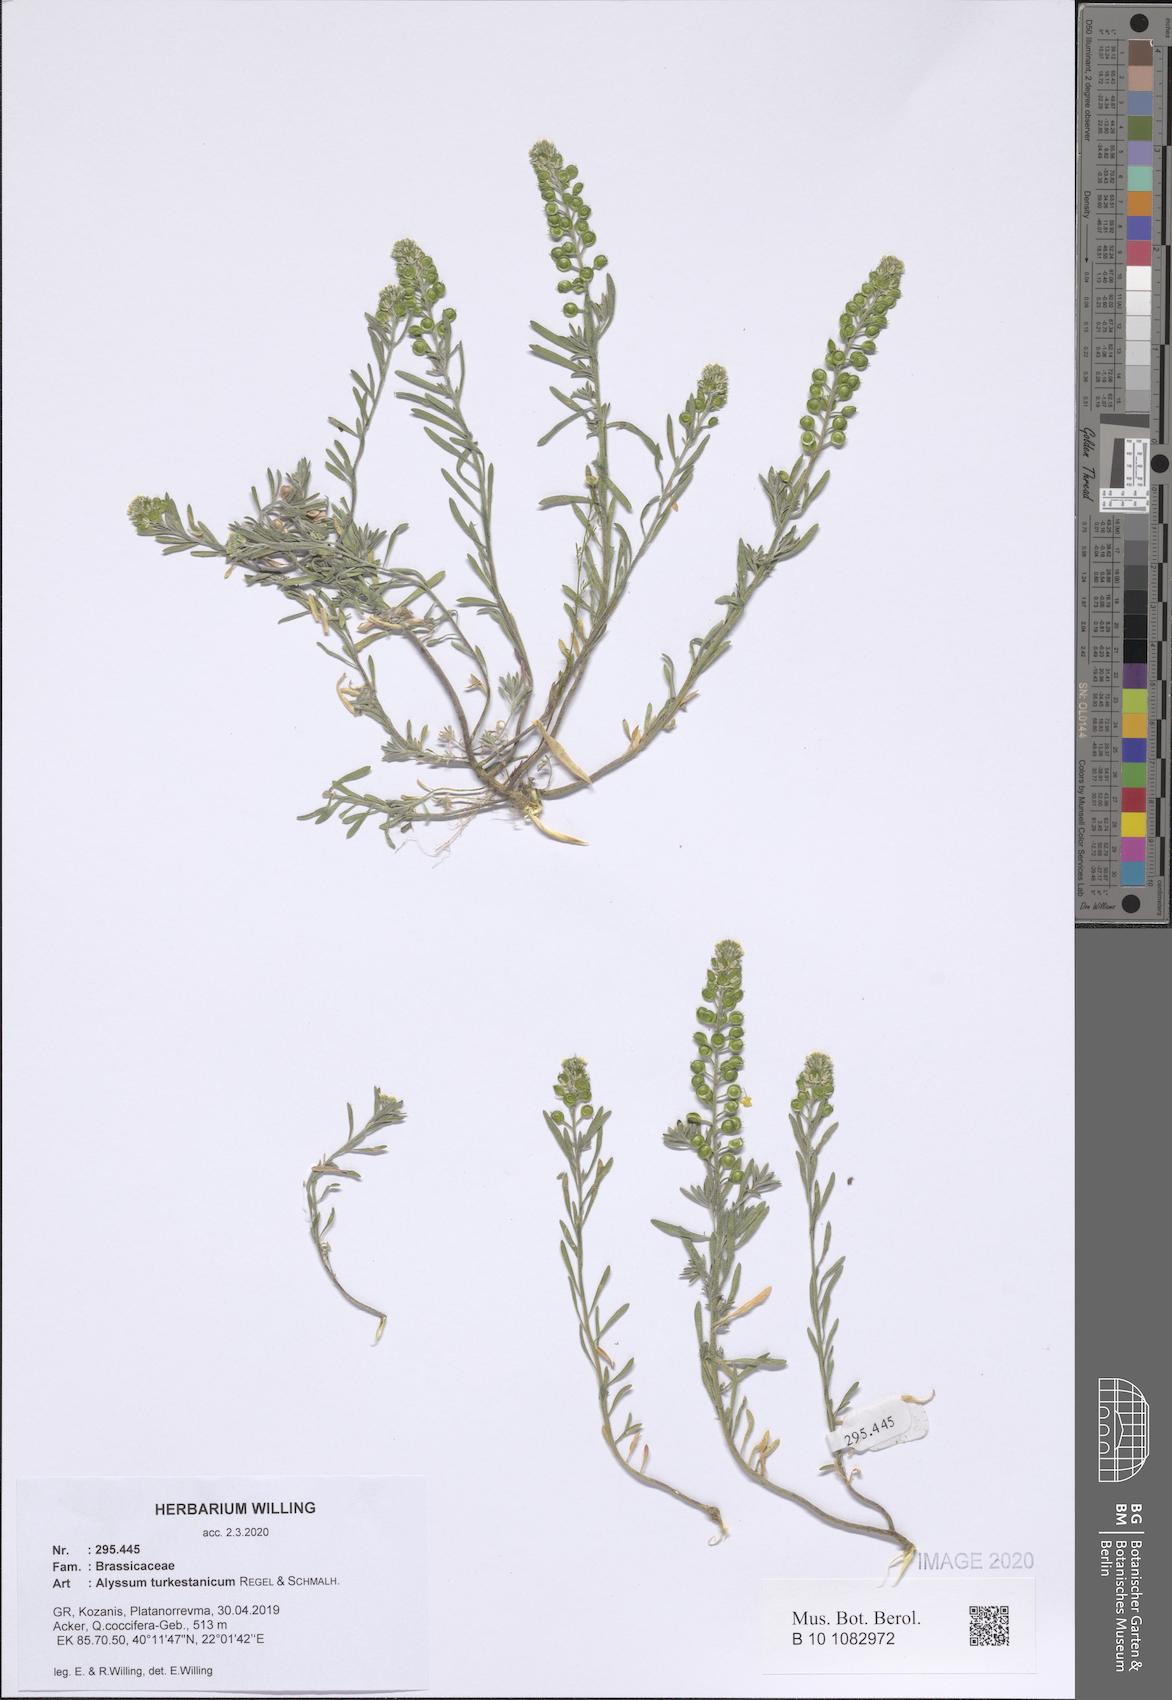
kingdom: Plantae
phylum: Tracheophyta
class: Magnoliopsida
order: Brassicales
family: Brassicaceae
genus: Alyssum
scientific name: Alyssum turkestanicum
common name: Desert alyssum
